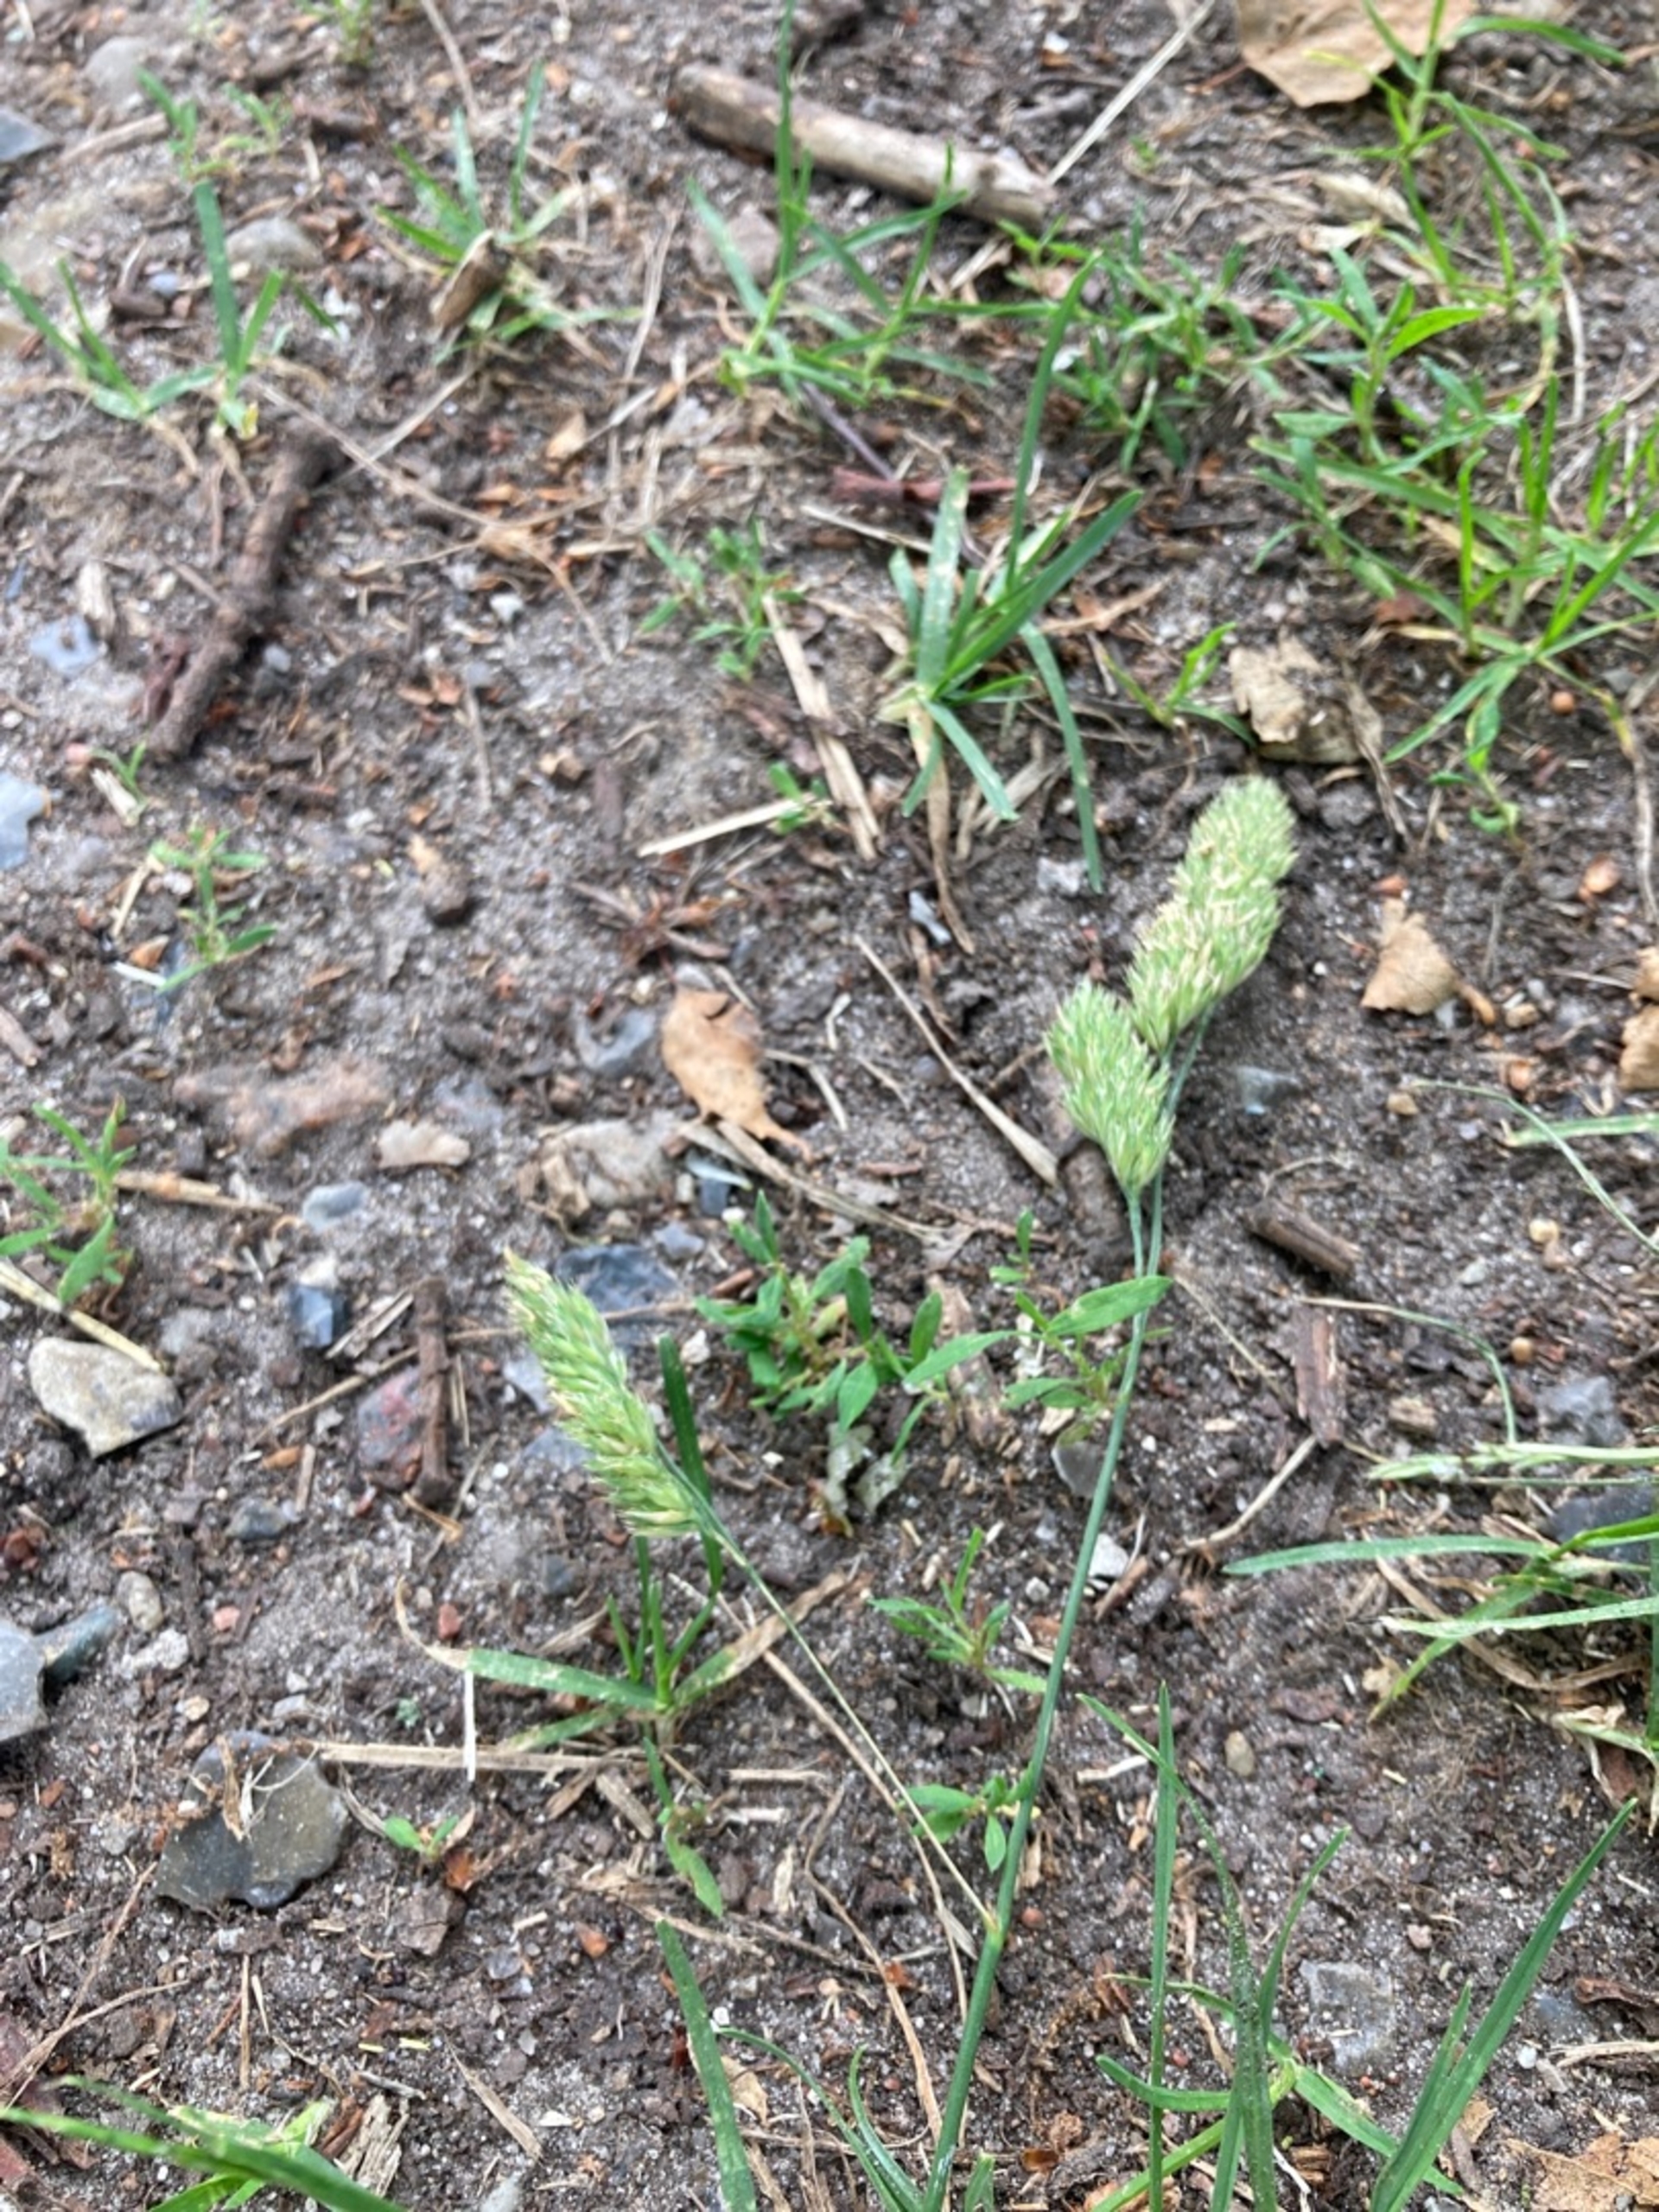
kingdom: Plantae
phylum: Tracheophyta
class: Liliopsida
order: Poales
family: Poaceae
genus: Dactylis
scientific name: Dactylis glomerata
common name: Almindelig hundegræs
